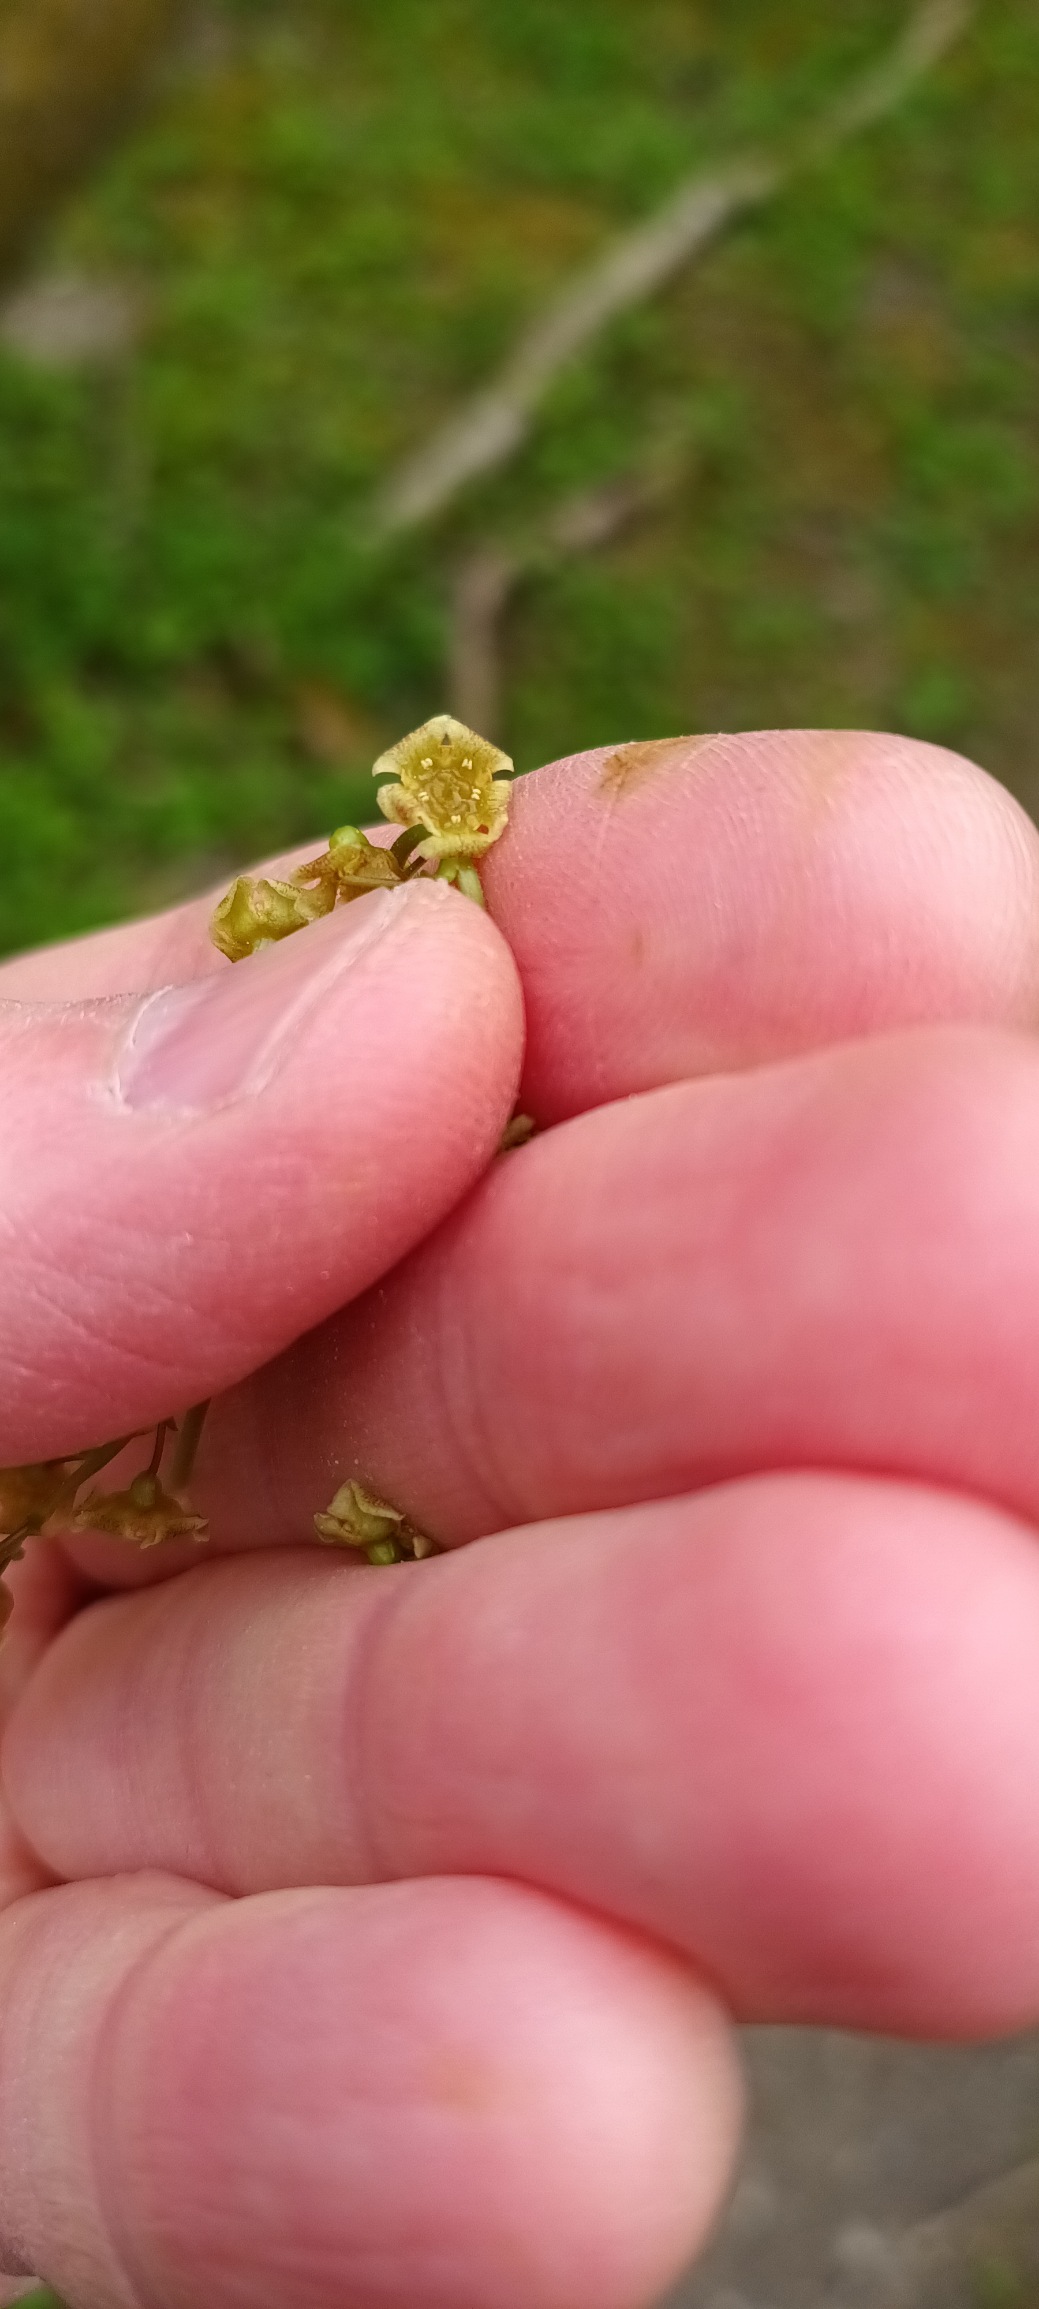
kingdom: Plantae
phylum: Tracheophyta
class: Magnoliopsida
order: Saxifragales
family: Grossulariaceae
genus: Ribes
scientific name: Ribes rubrum
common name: Slots-ribs
